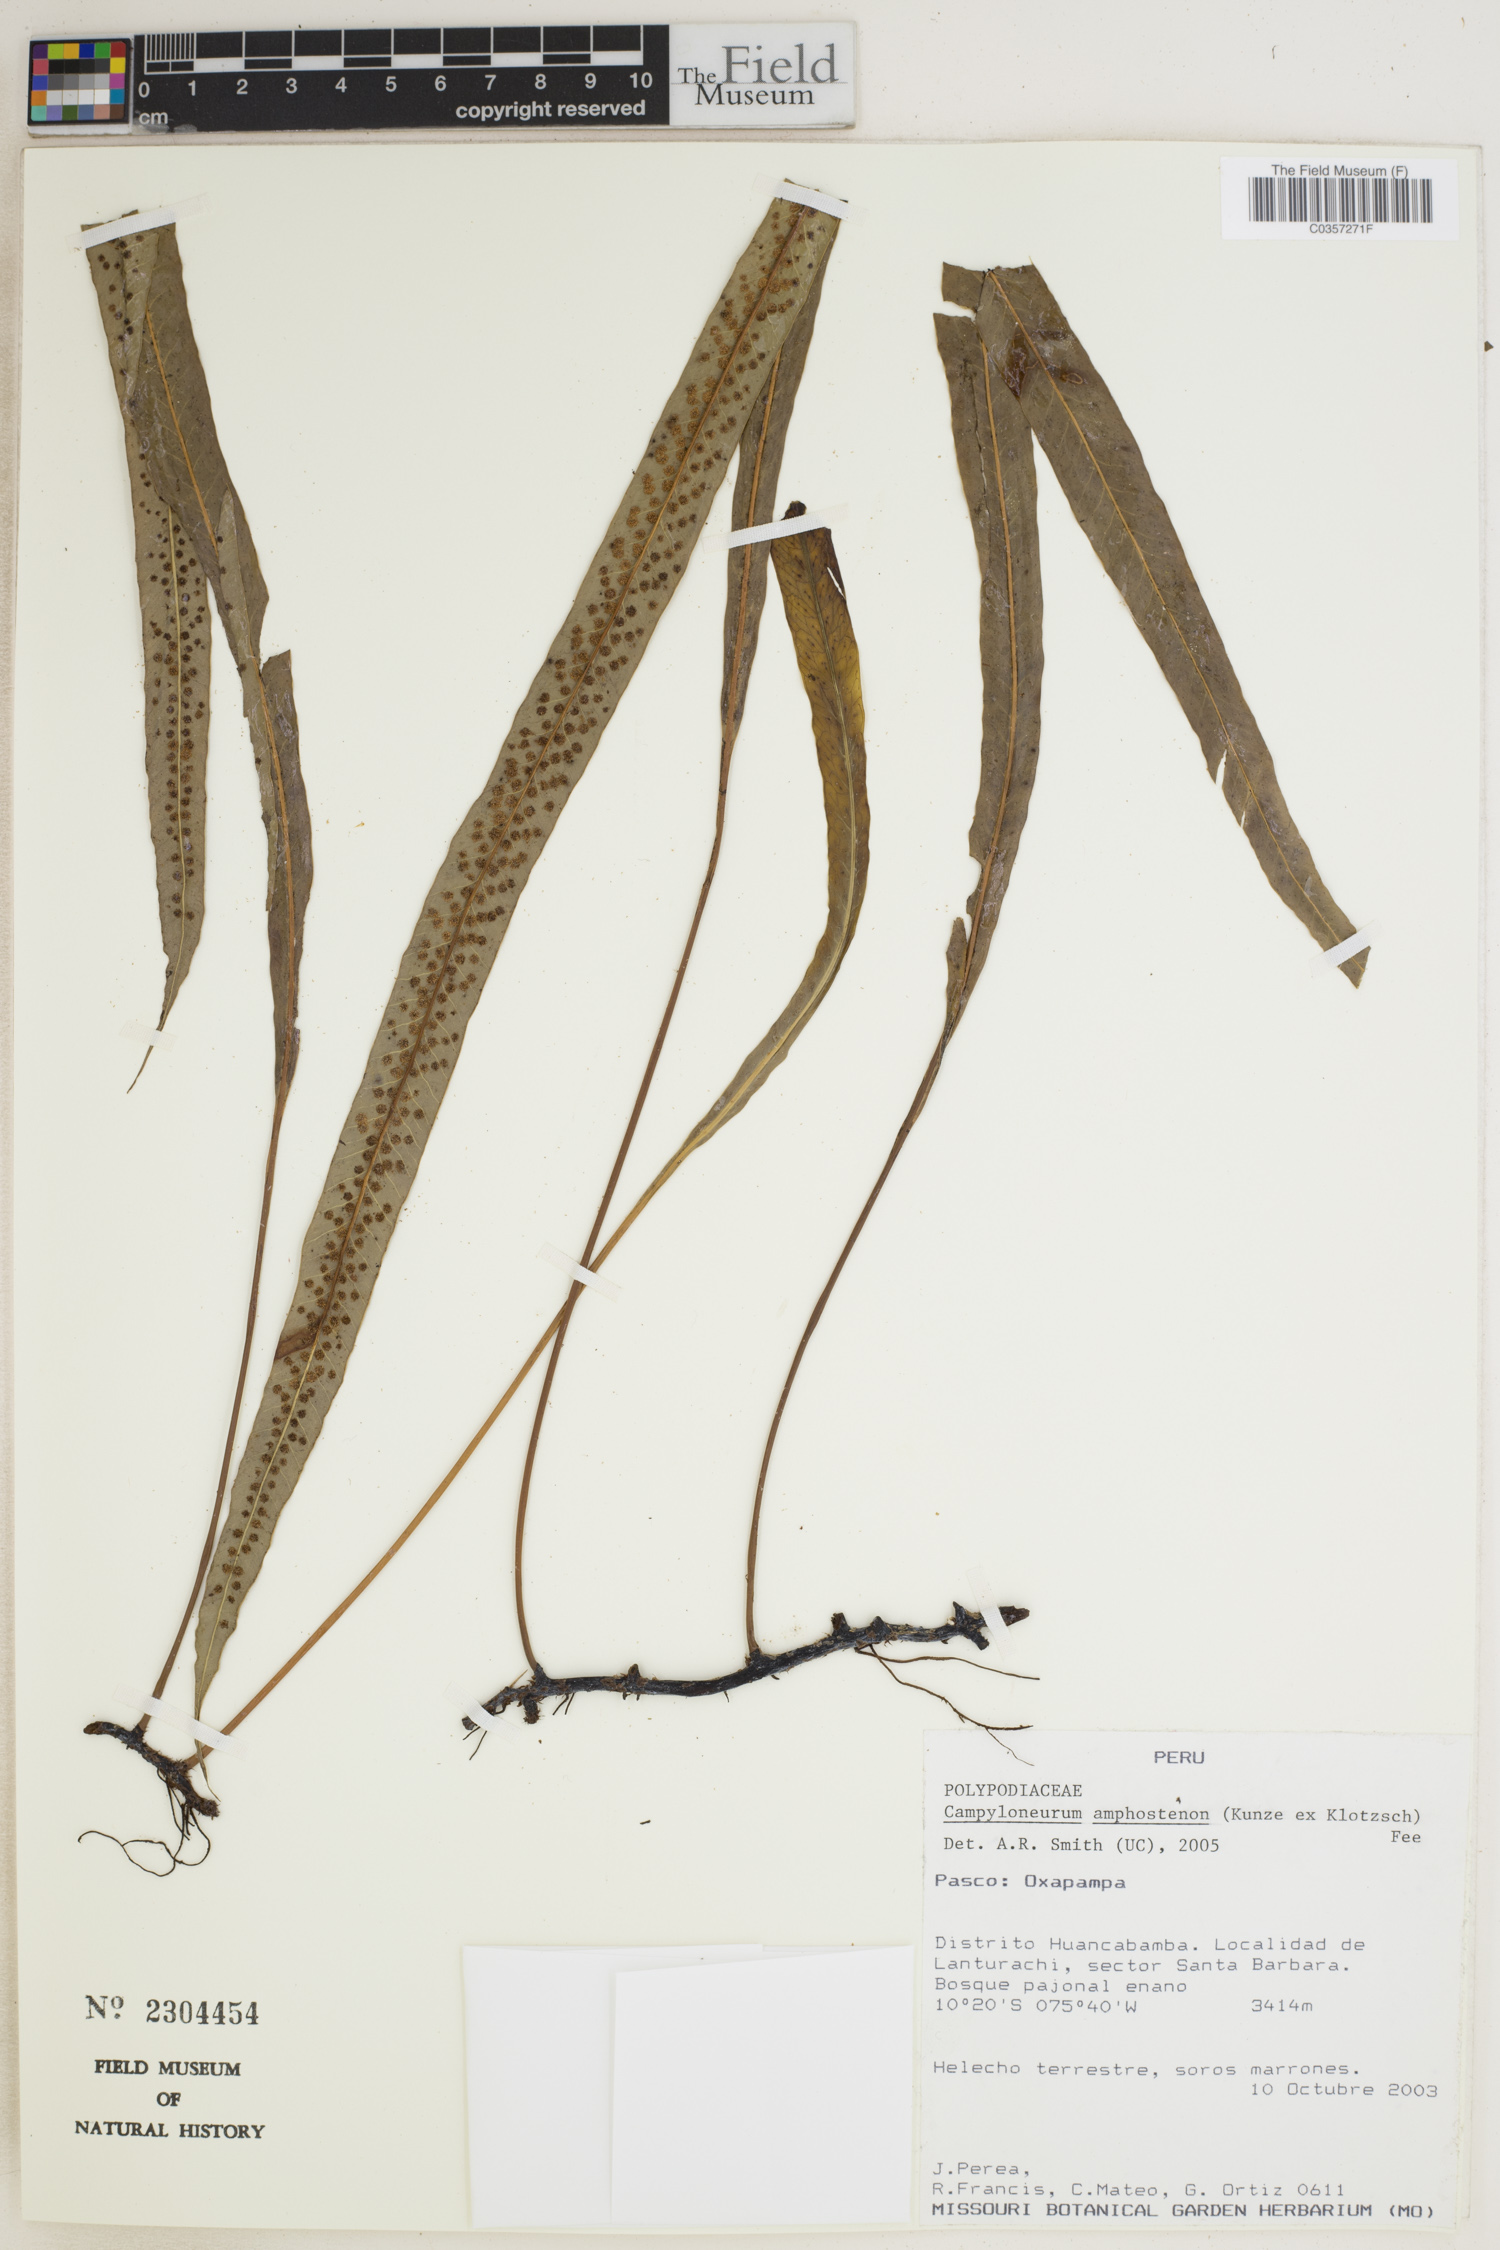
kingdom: Plantae
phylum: Tracheophyta
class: Polypodiopsida
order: Polypodiales
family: Polypodiaceae
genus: Campyloneurum
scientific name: Campyloneurum amphostenon
